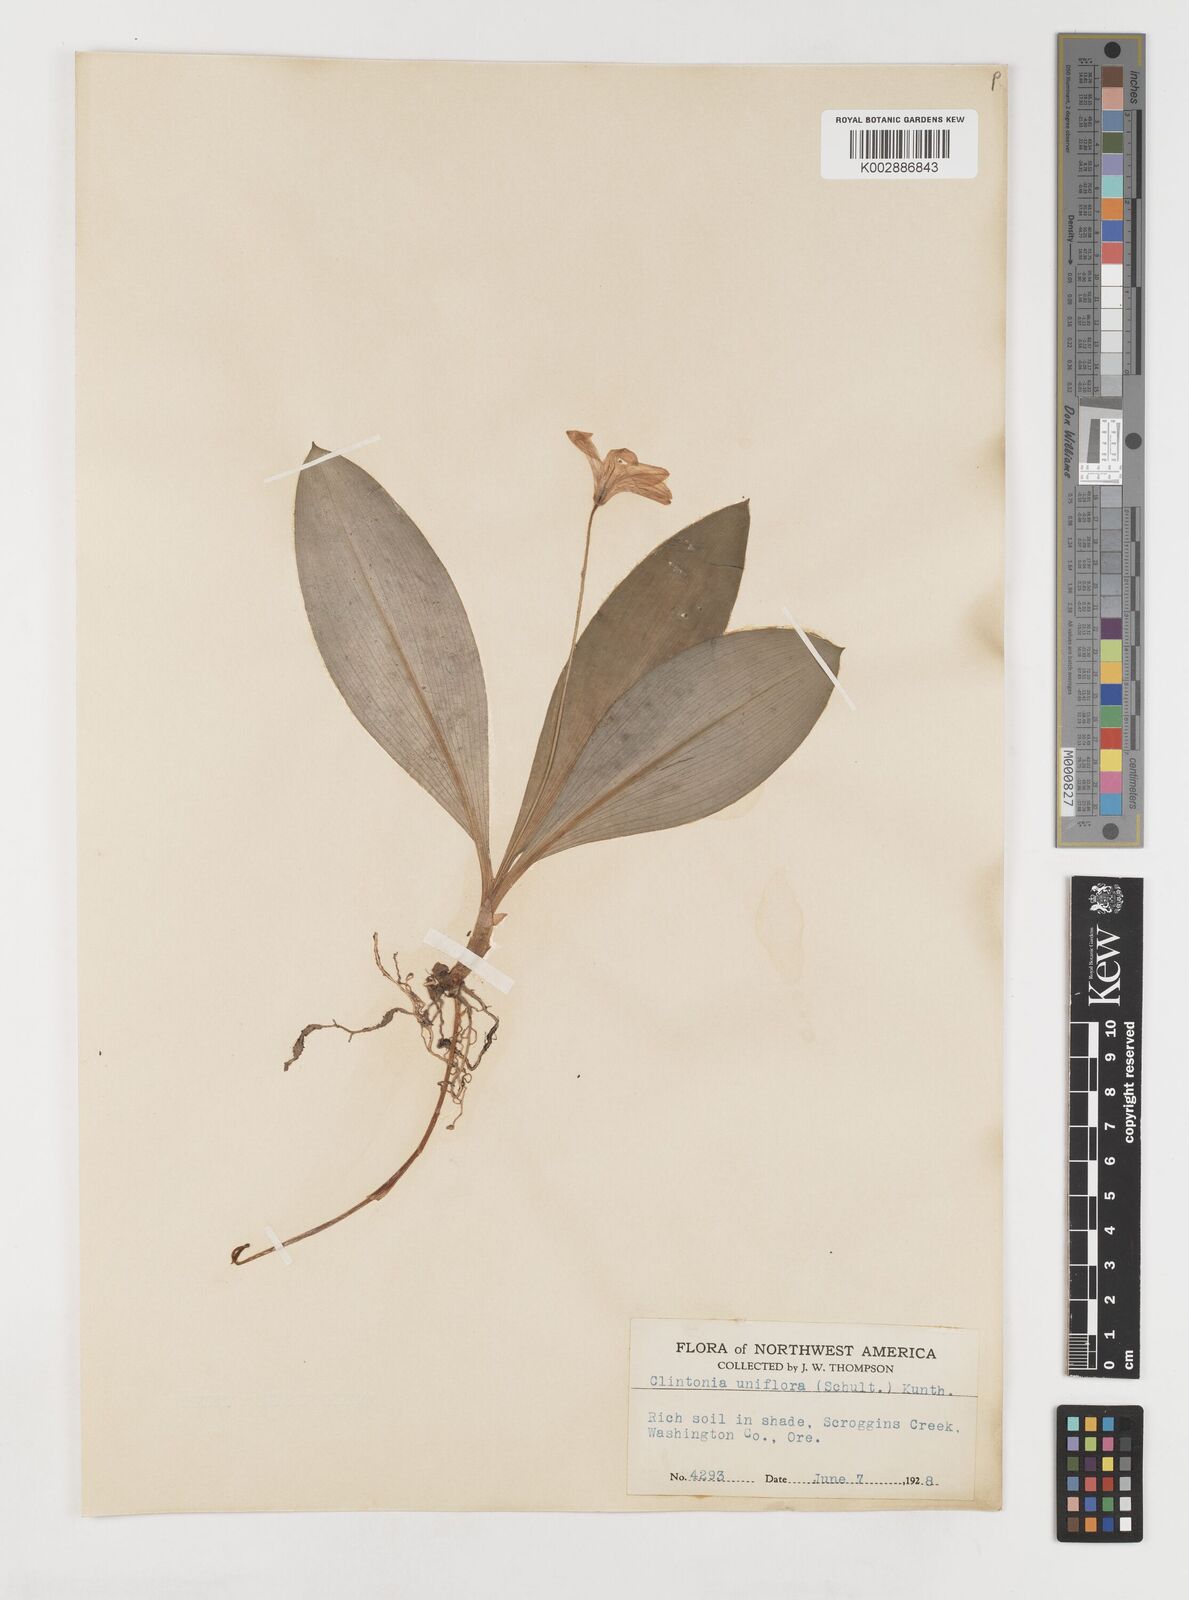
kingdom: Plantae
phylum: Tracheophyta
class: Liliopsida
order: Liliales
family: Liliaceae
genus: Clintonia
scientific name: Clintonia uniflora
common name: Queen's cup
